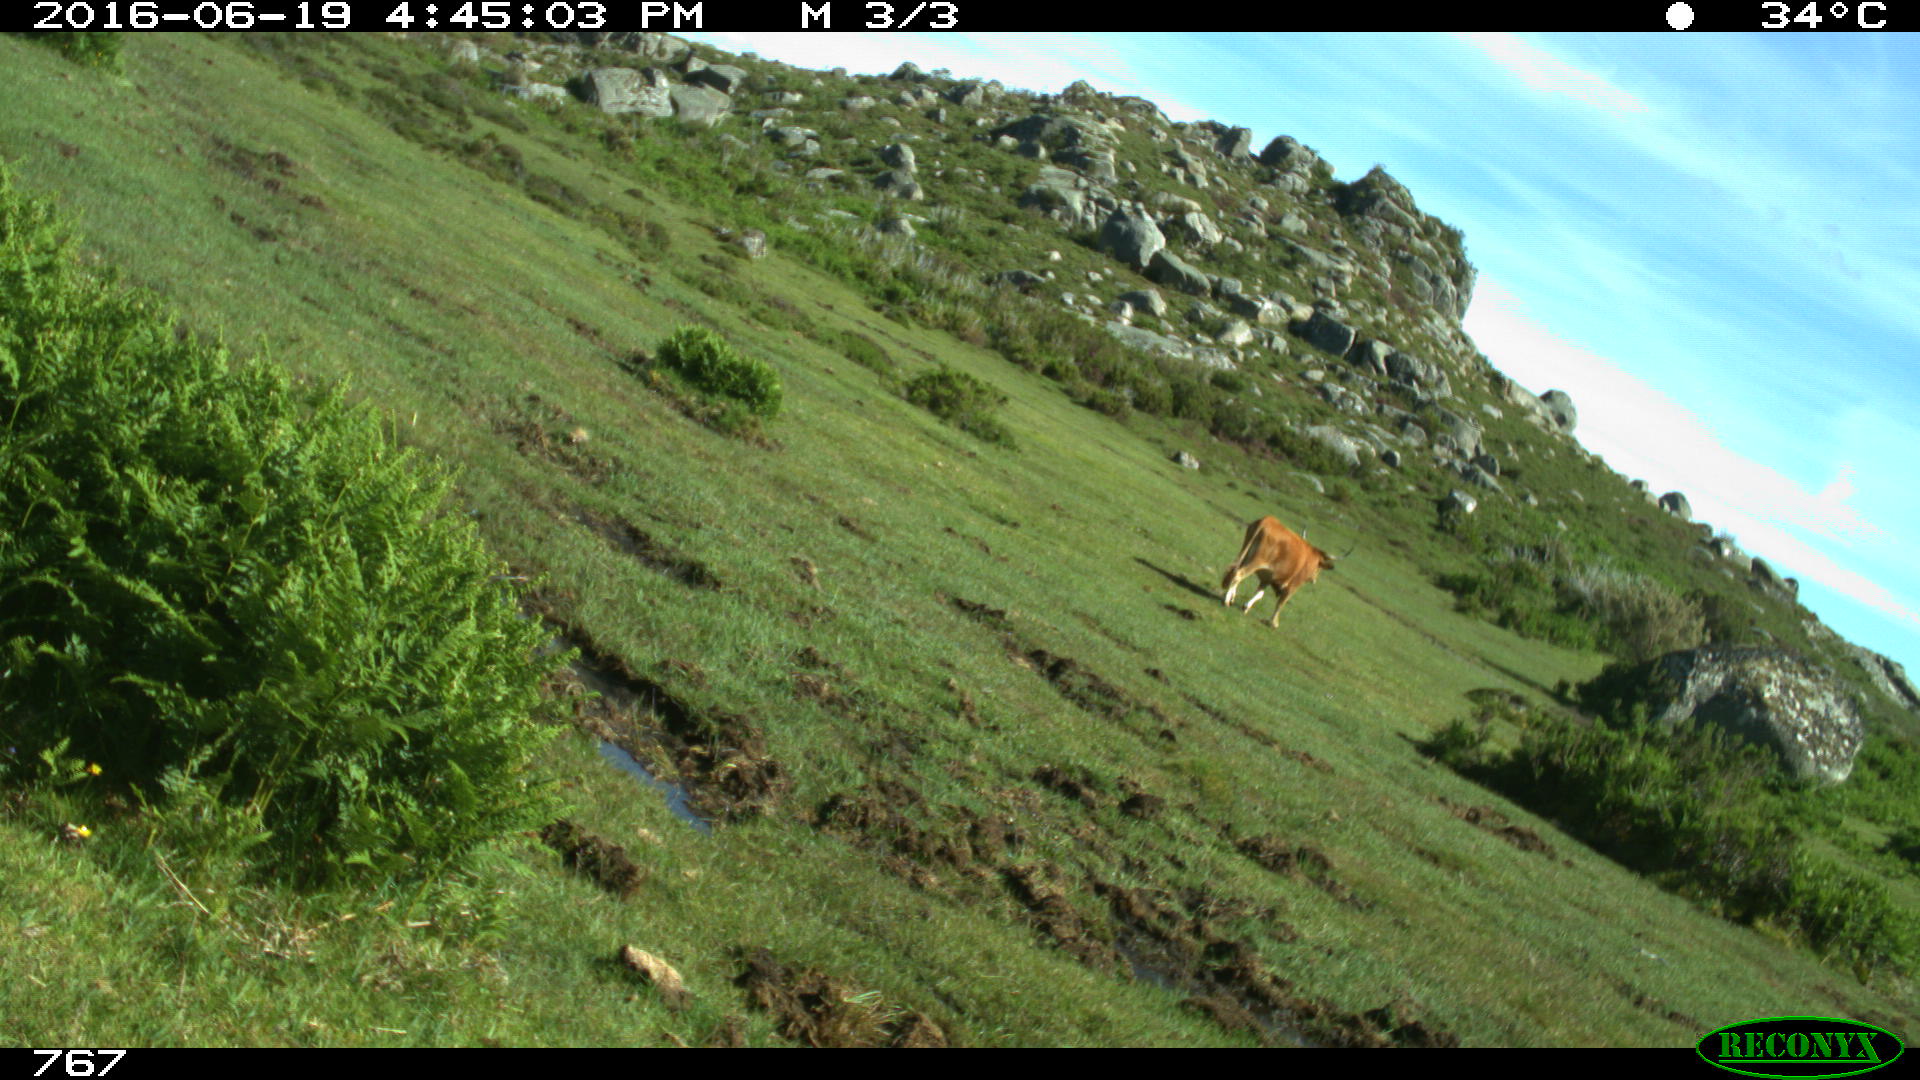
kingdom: Animalia
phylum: Chordata
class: Mammalia
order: Artiodactyla
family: Bovidae
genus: Bos
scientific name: Bos taurus
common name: Domesticated cattle
